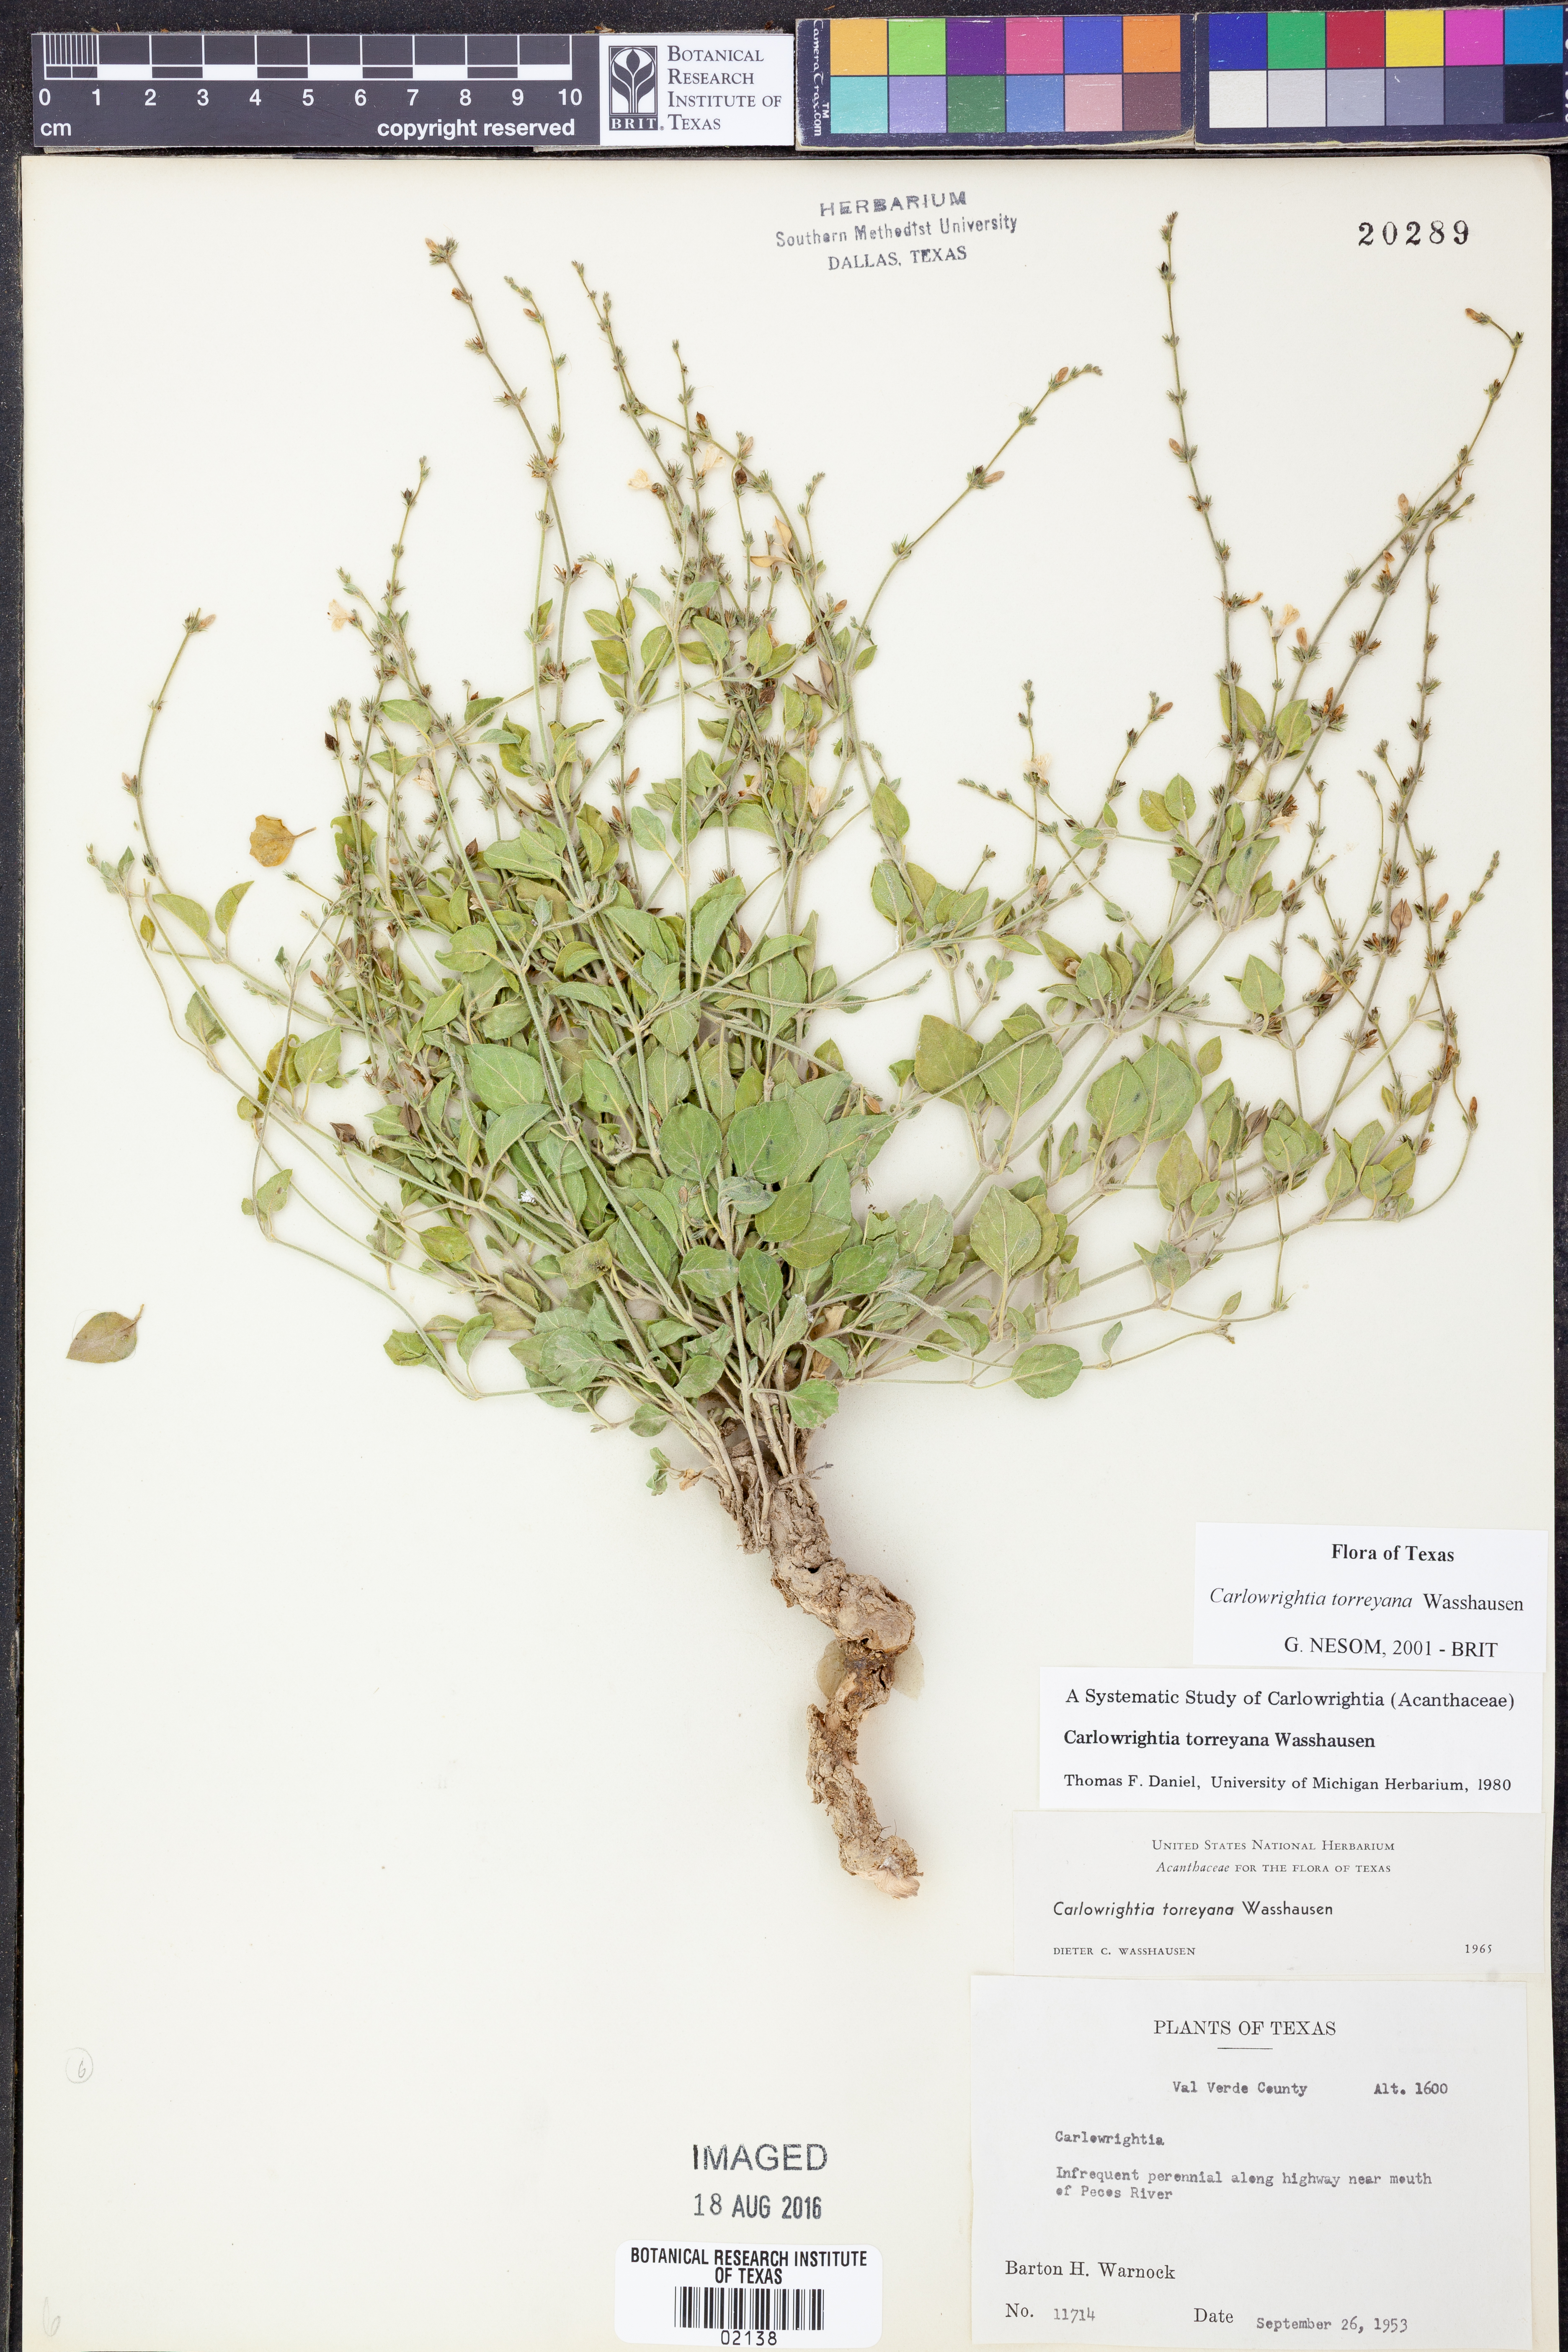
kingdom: Plantae
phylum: Tracheophyta
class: Magnoliopsida
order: Lamiales
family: Acanthaceae
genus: Carlowrightia
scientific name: Carlowrightia torreyana
